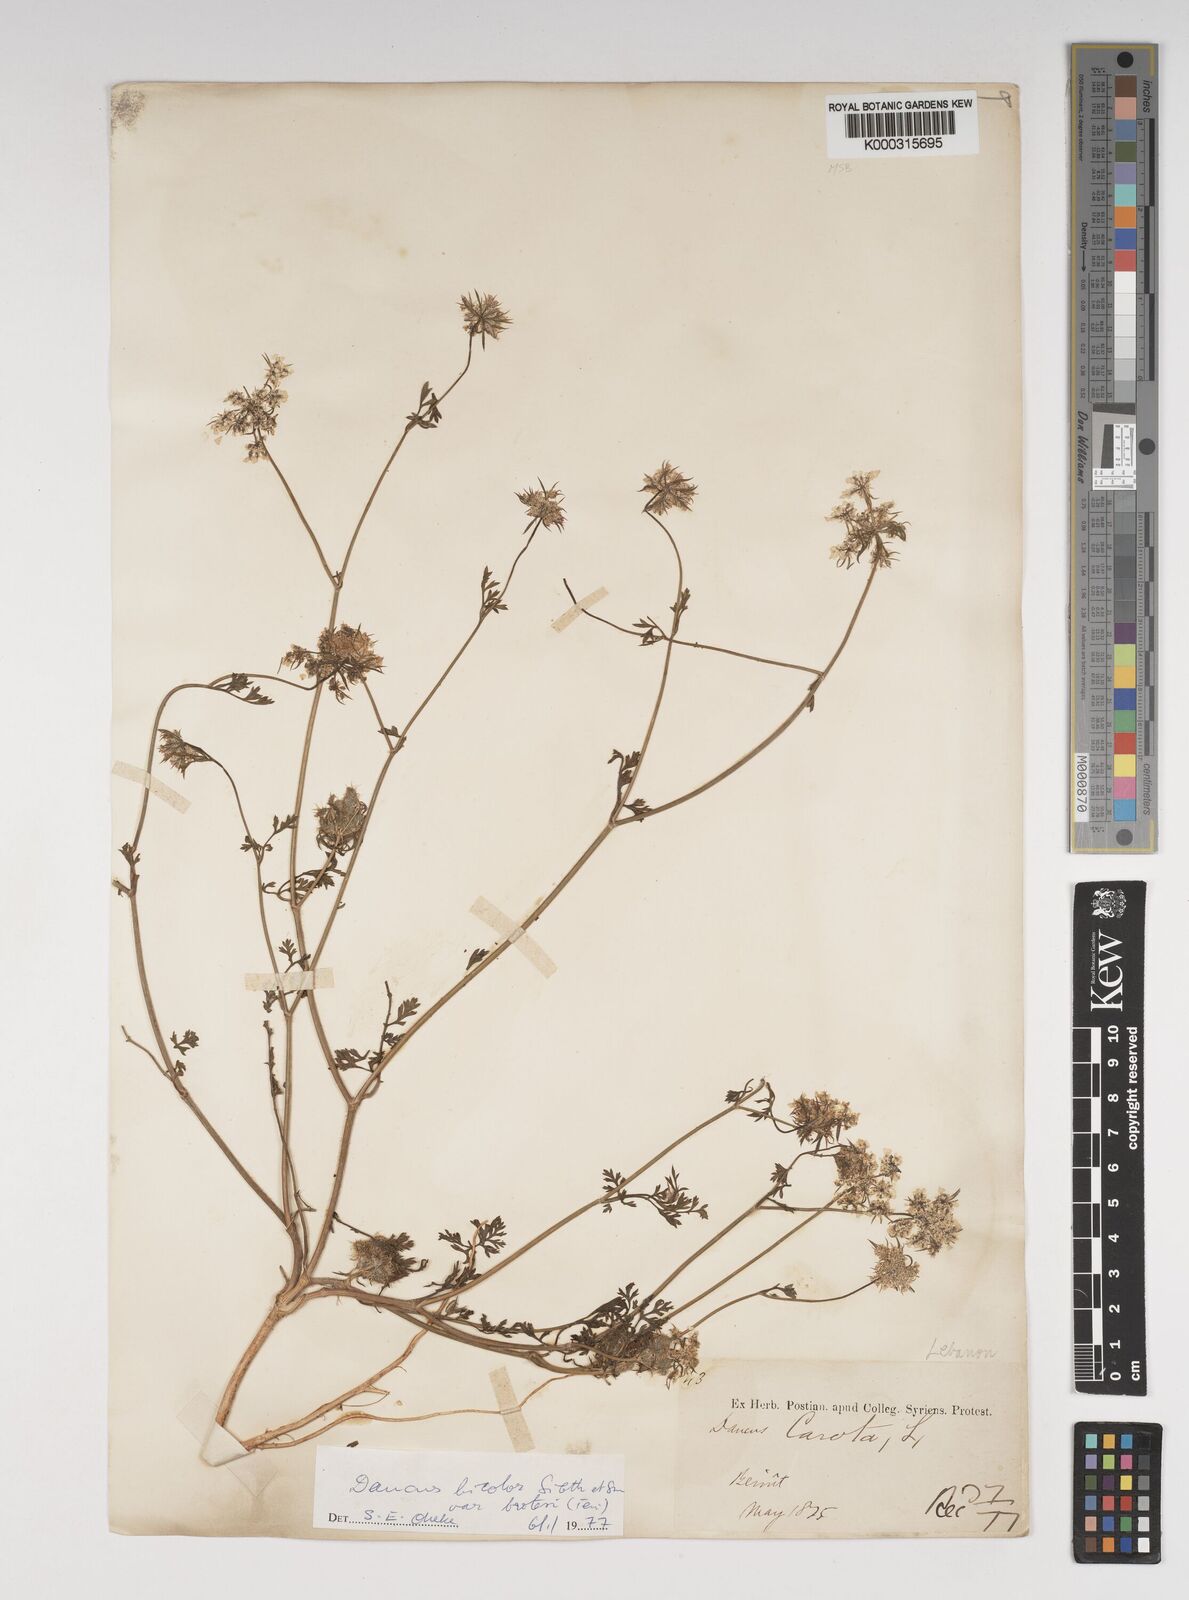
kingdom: Plantae
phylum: Tracheophyta
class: Magnoliopsida
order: Apiales
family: Apiaceae
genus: Daucus
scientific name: Daucus
